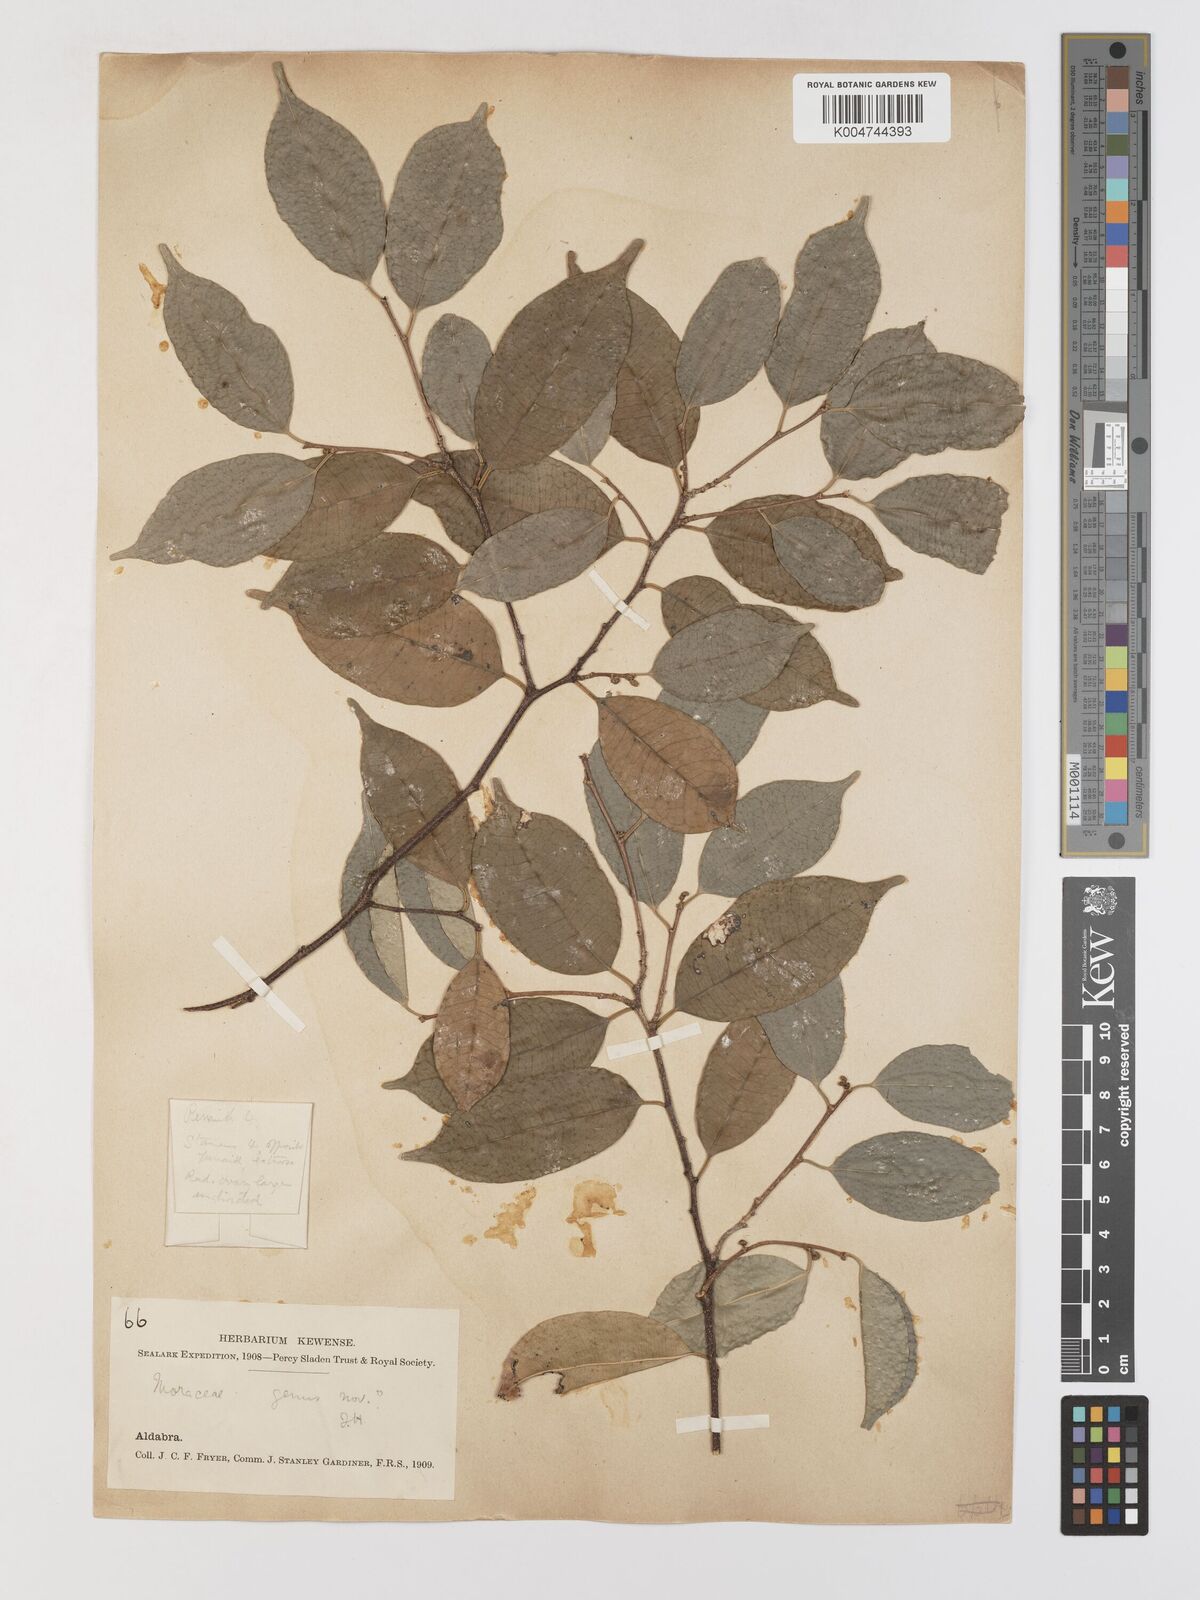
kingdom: Plantae
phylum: Tracheophyta
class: Magnoliopsida
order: Rosales
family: Moraceae
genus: Maillardia
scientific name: Maillardia montana
